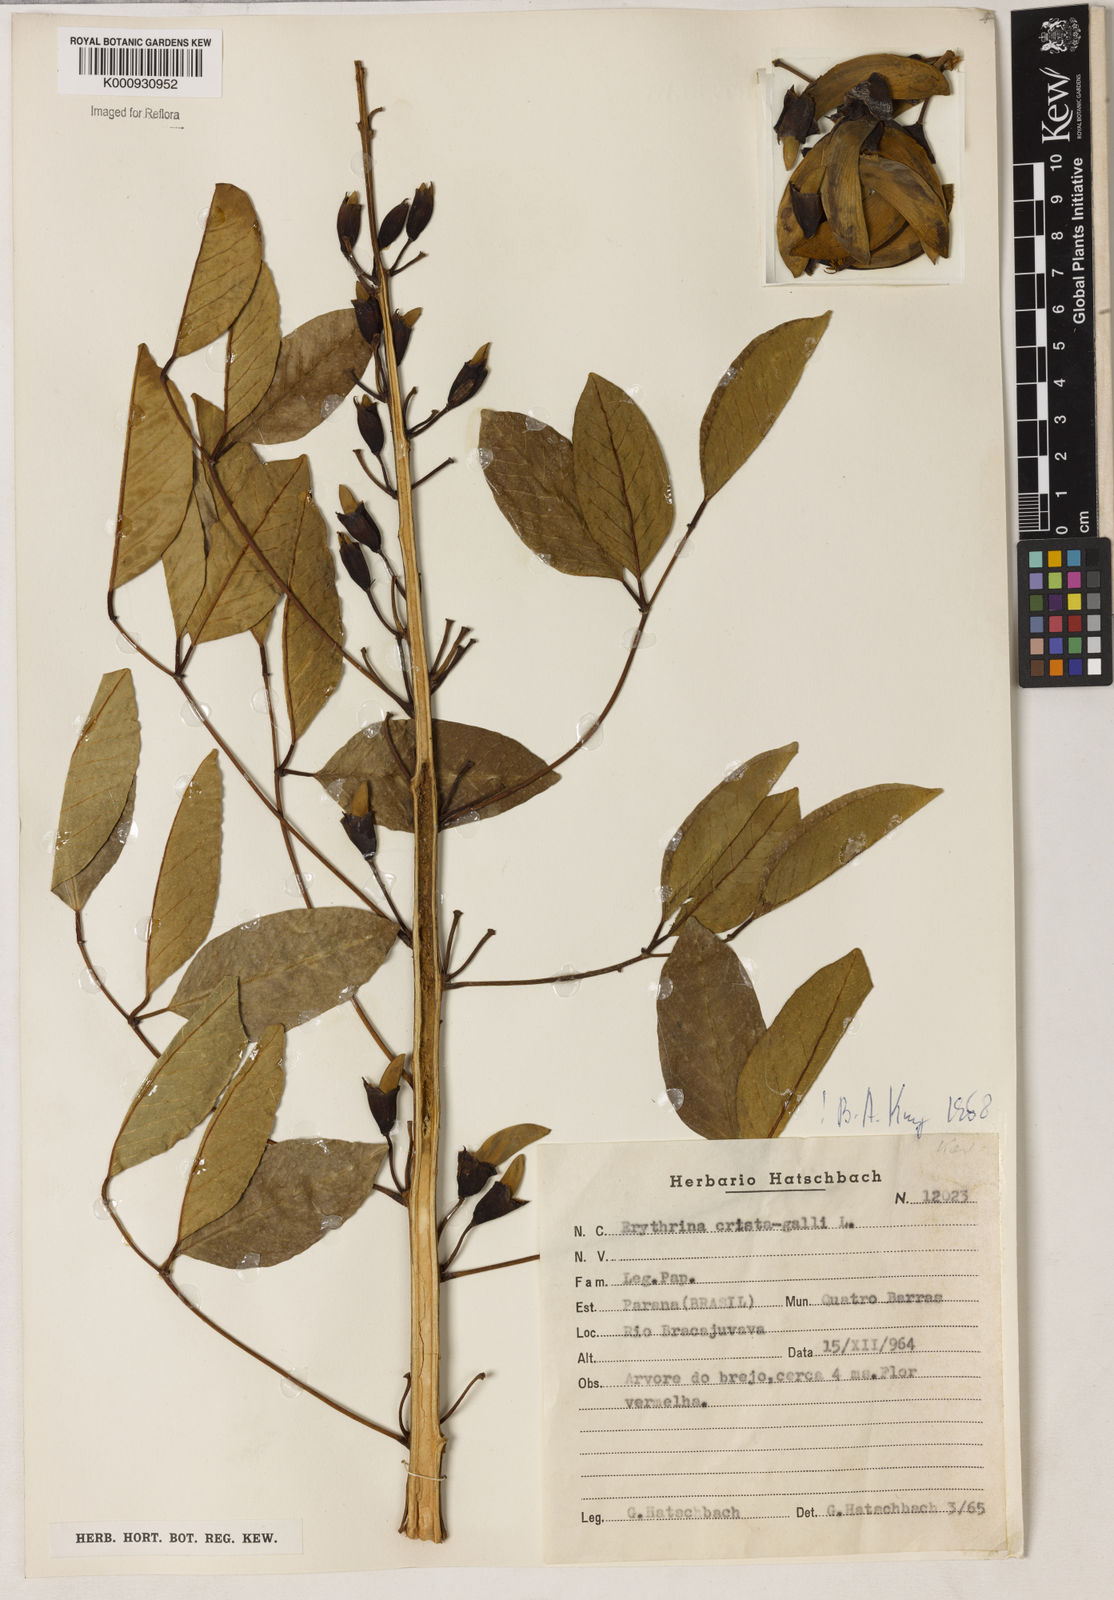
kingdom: Plantae
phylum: Tracheophyta
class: Magnoliopsida
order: Fabales
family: Fabaceae
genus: Erythrina
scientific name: Erythrina crista-galli
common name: Cockspur coral tree
